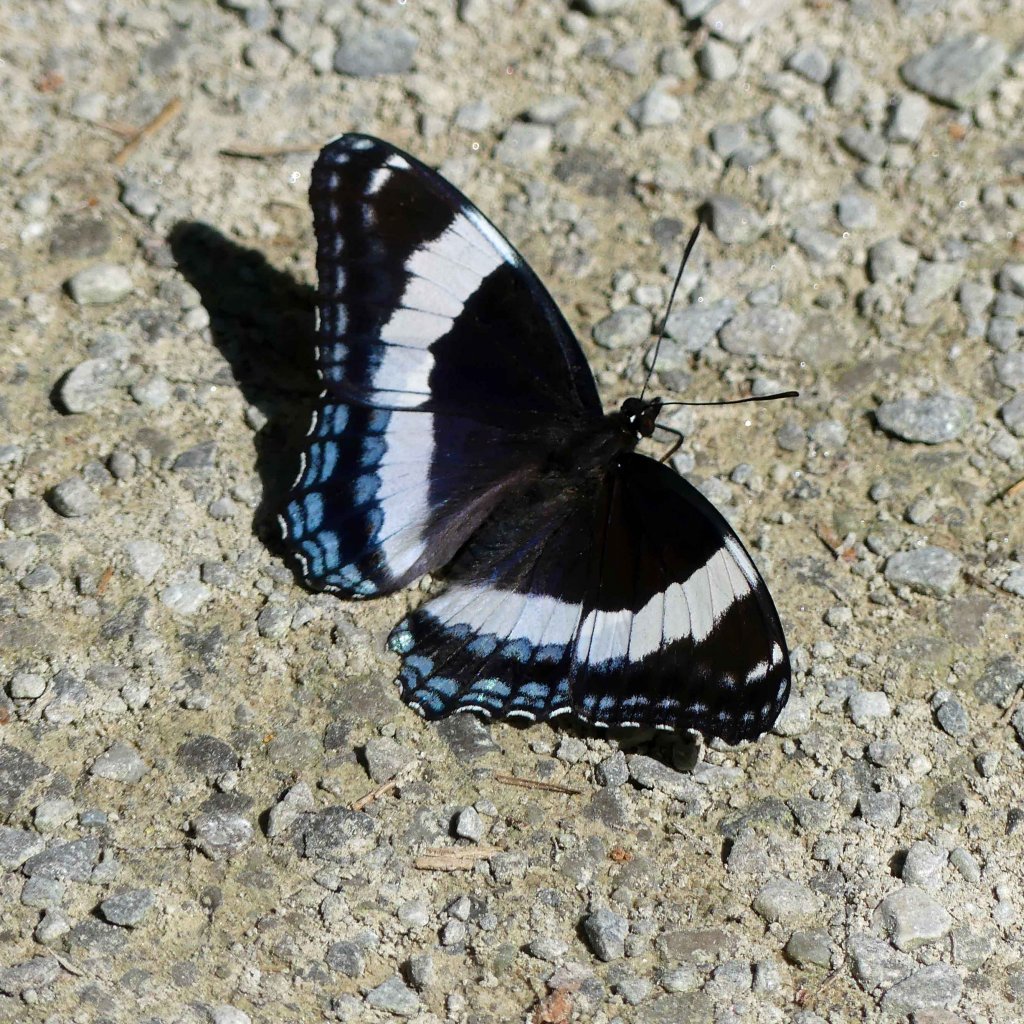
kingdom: Animalia
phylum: Arthropoda
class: Insecta
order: Lepidoptera
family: Nymphalidae
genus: Limenitis
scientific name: Limenitis arthemis
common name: Red-spotted Admiral
